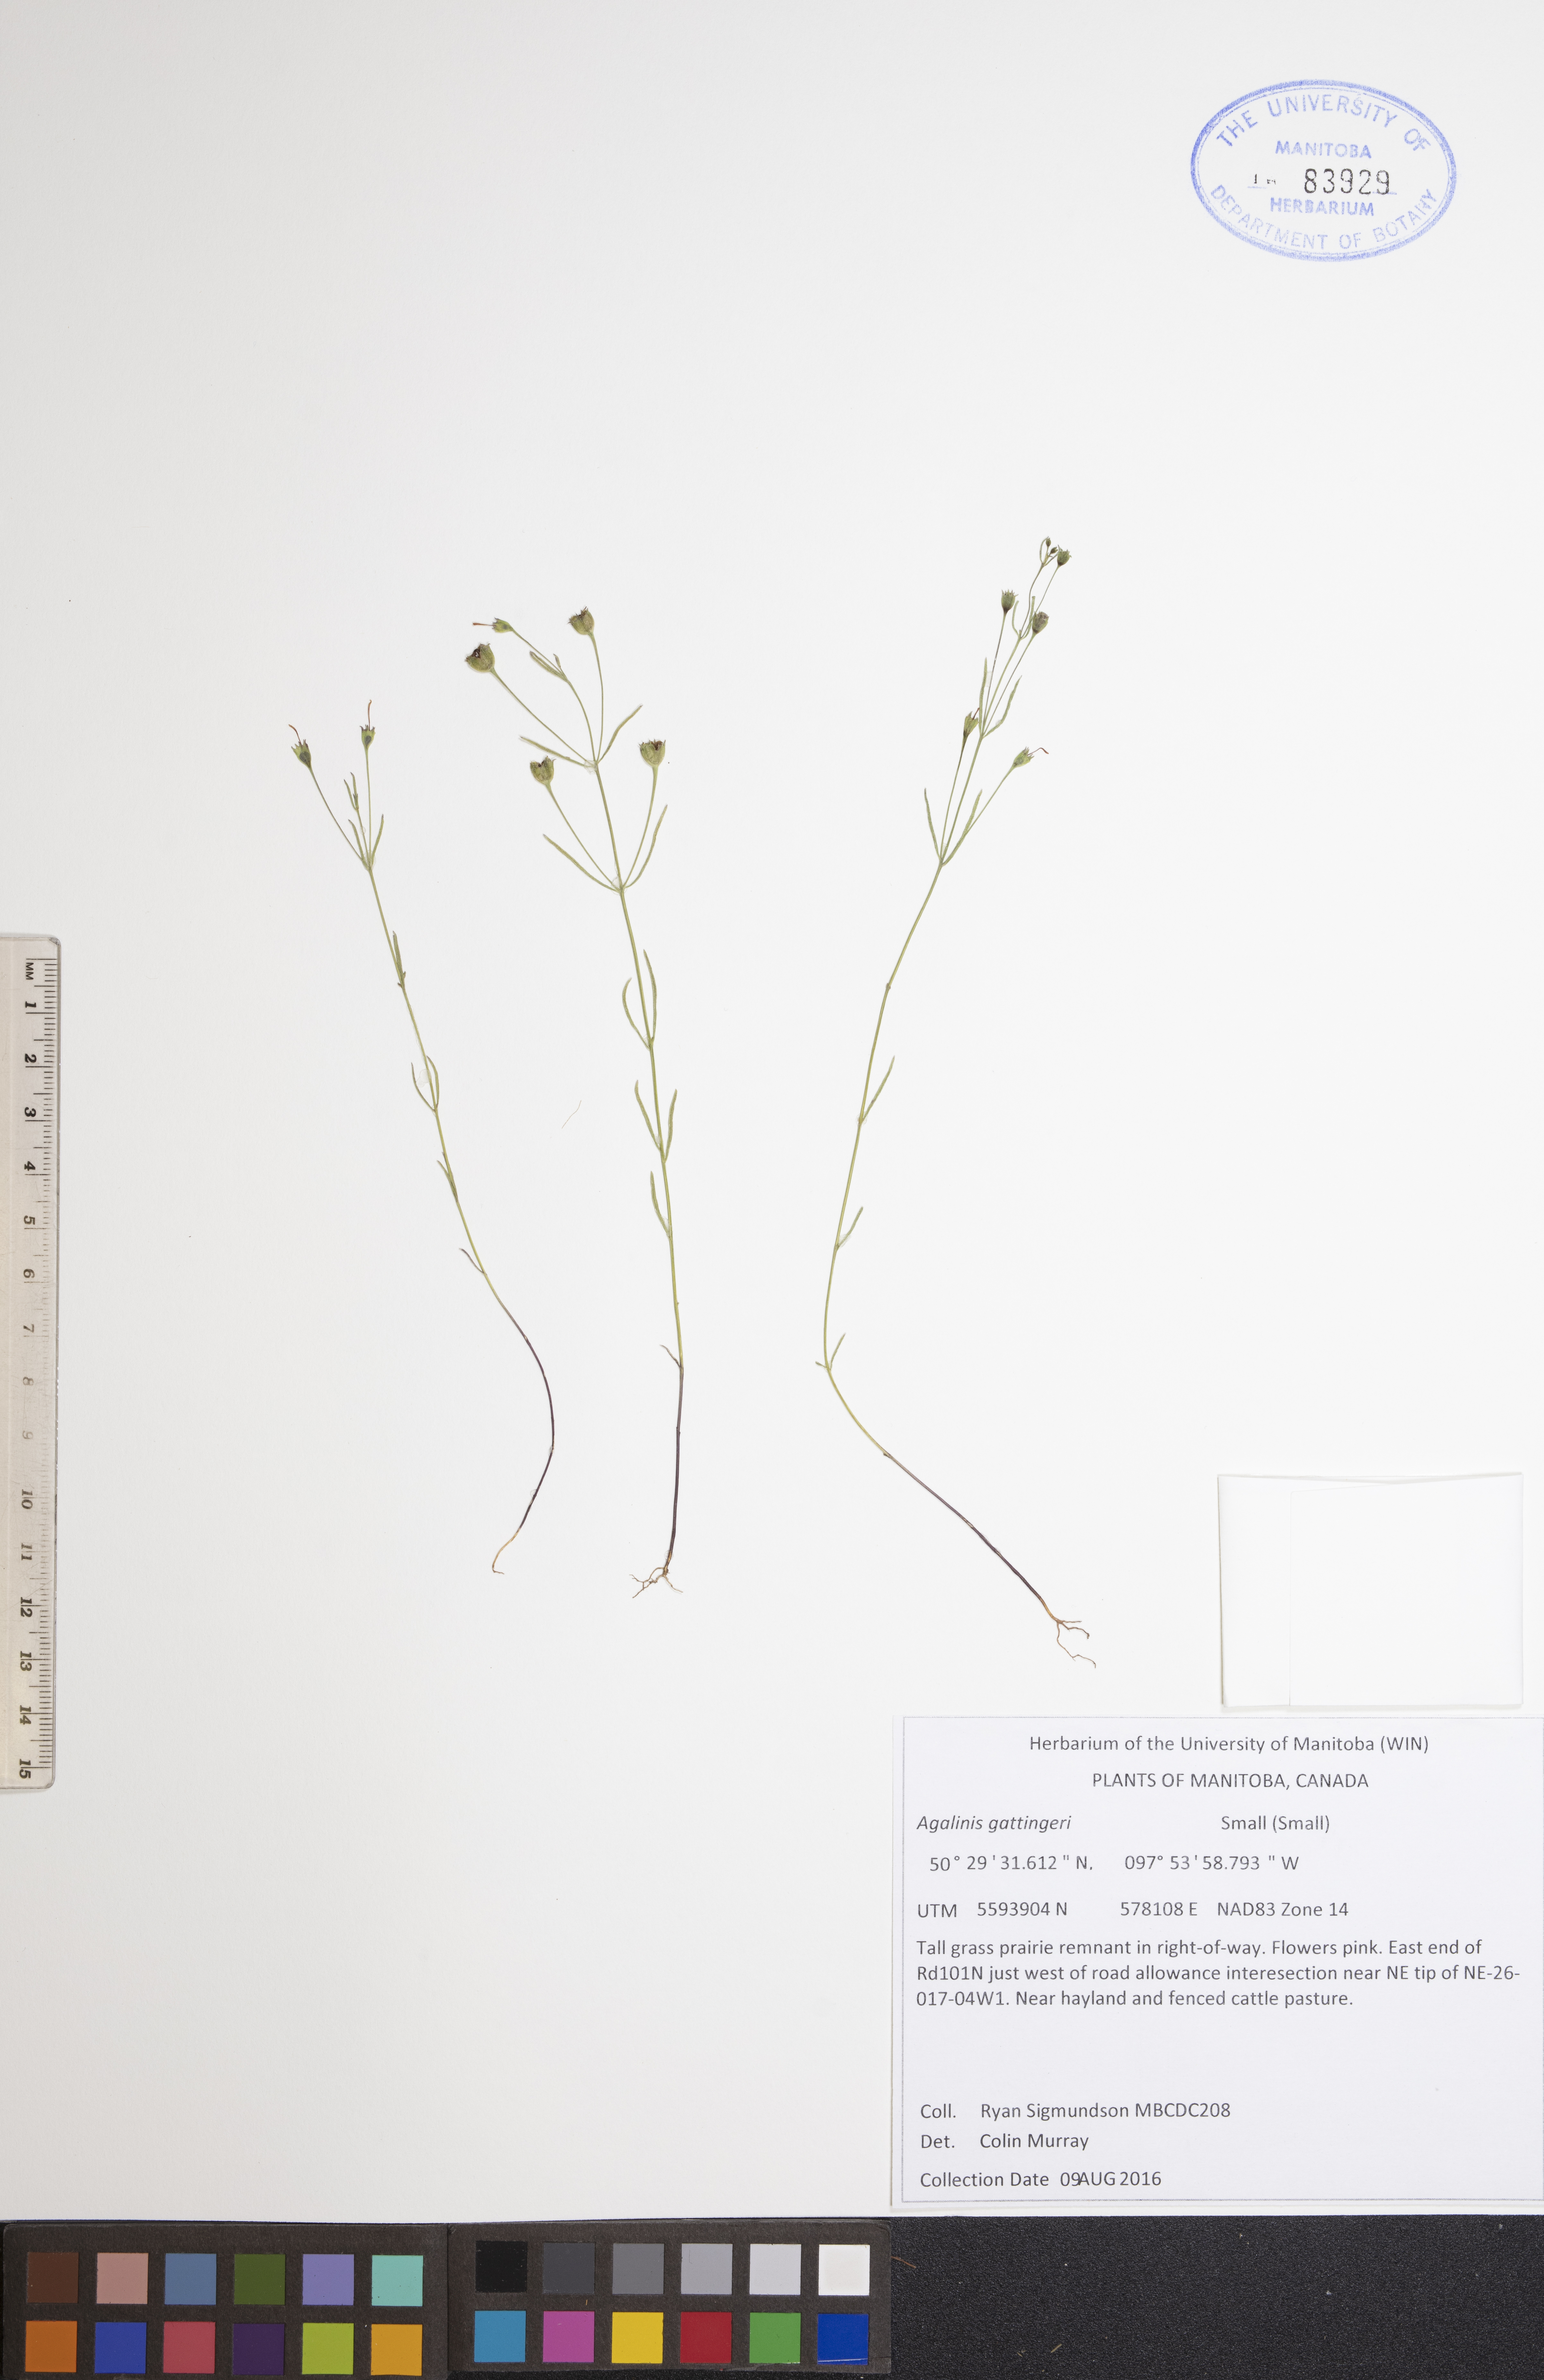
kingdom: Plantae
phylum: Tracheophyta
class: Magnoliopsida
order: Lamiales
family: Orobanchaceae
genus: Agalinis
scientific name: Agalinis gattingeri
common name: Gattinger's agalinis
